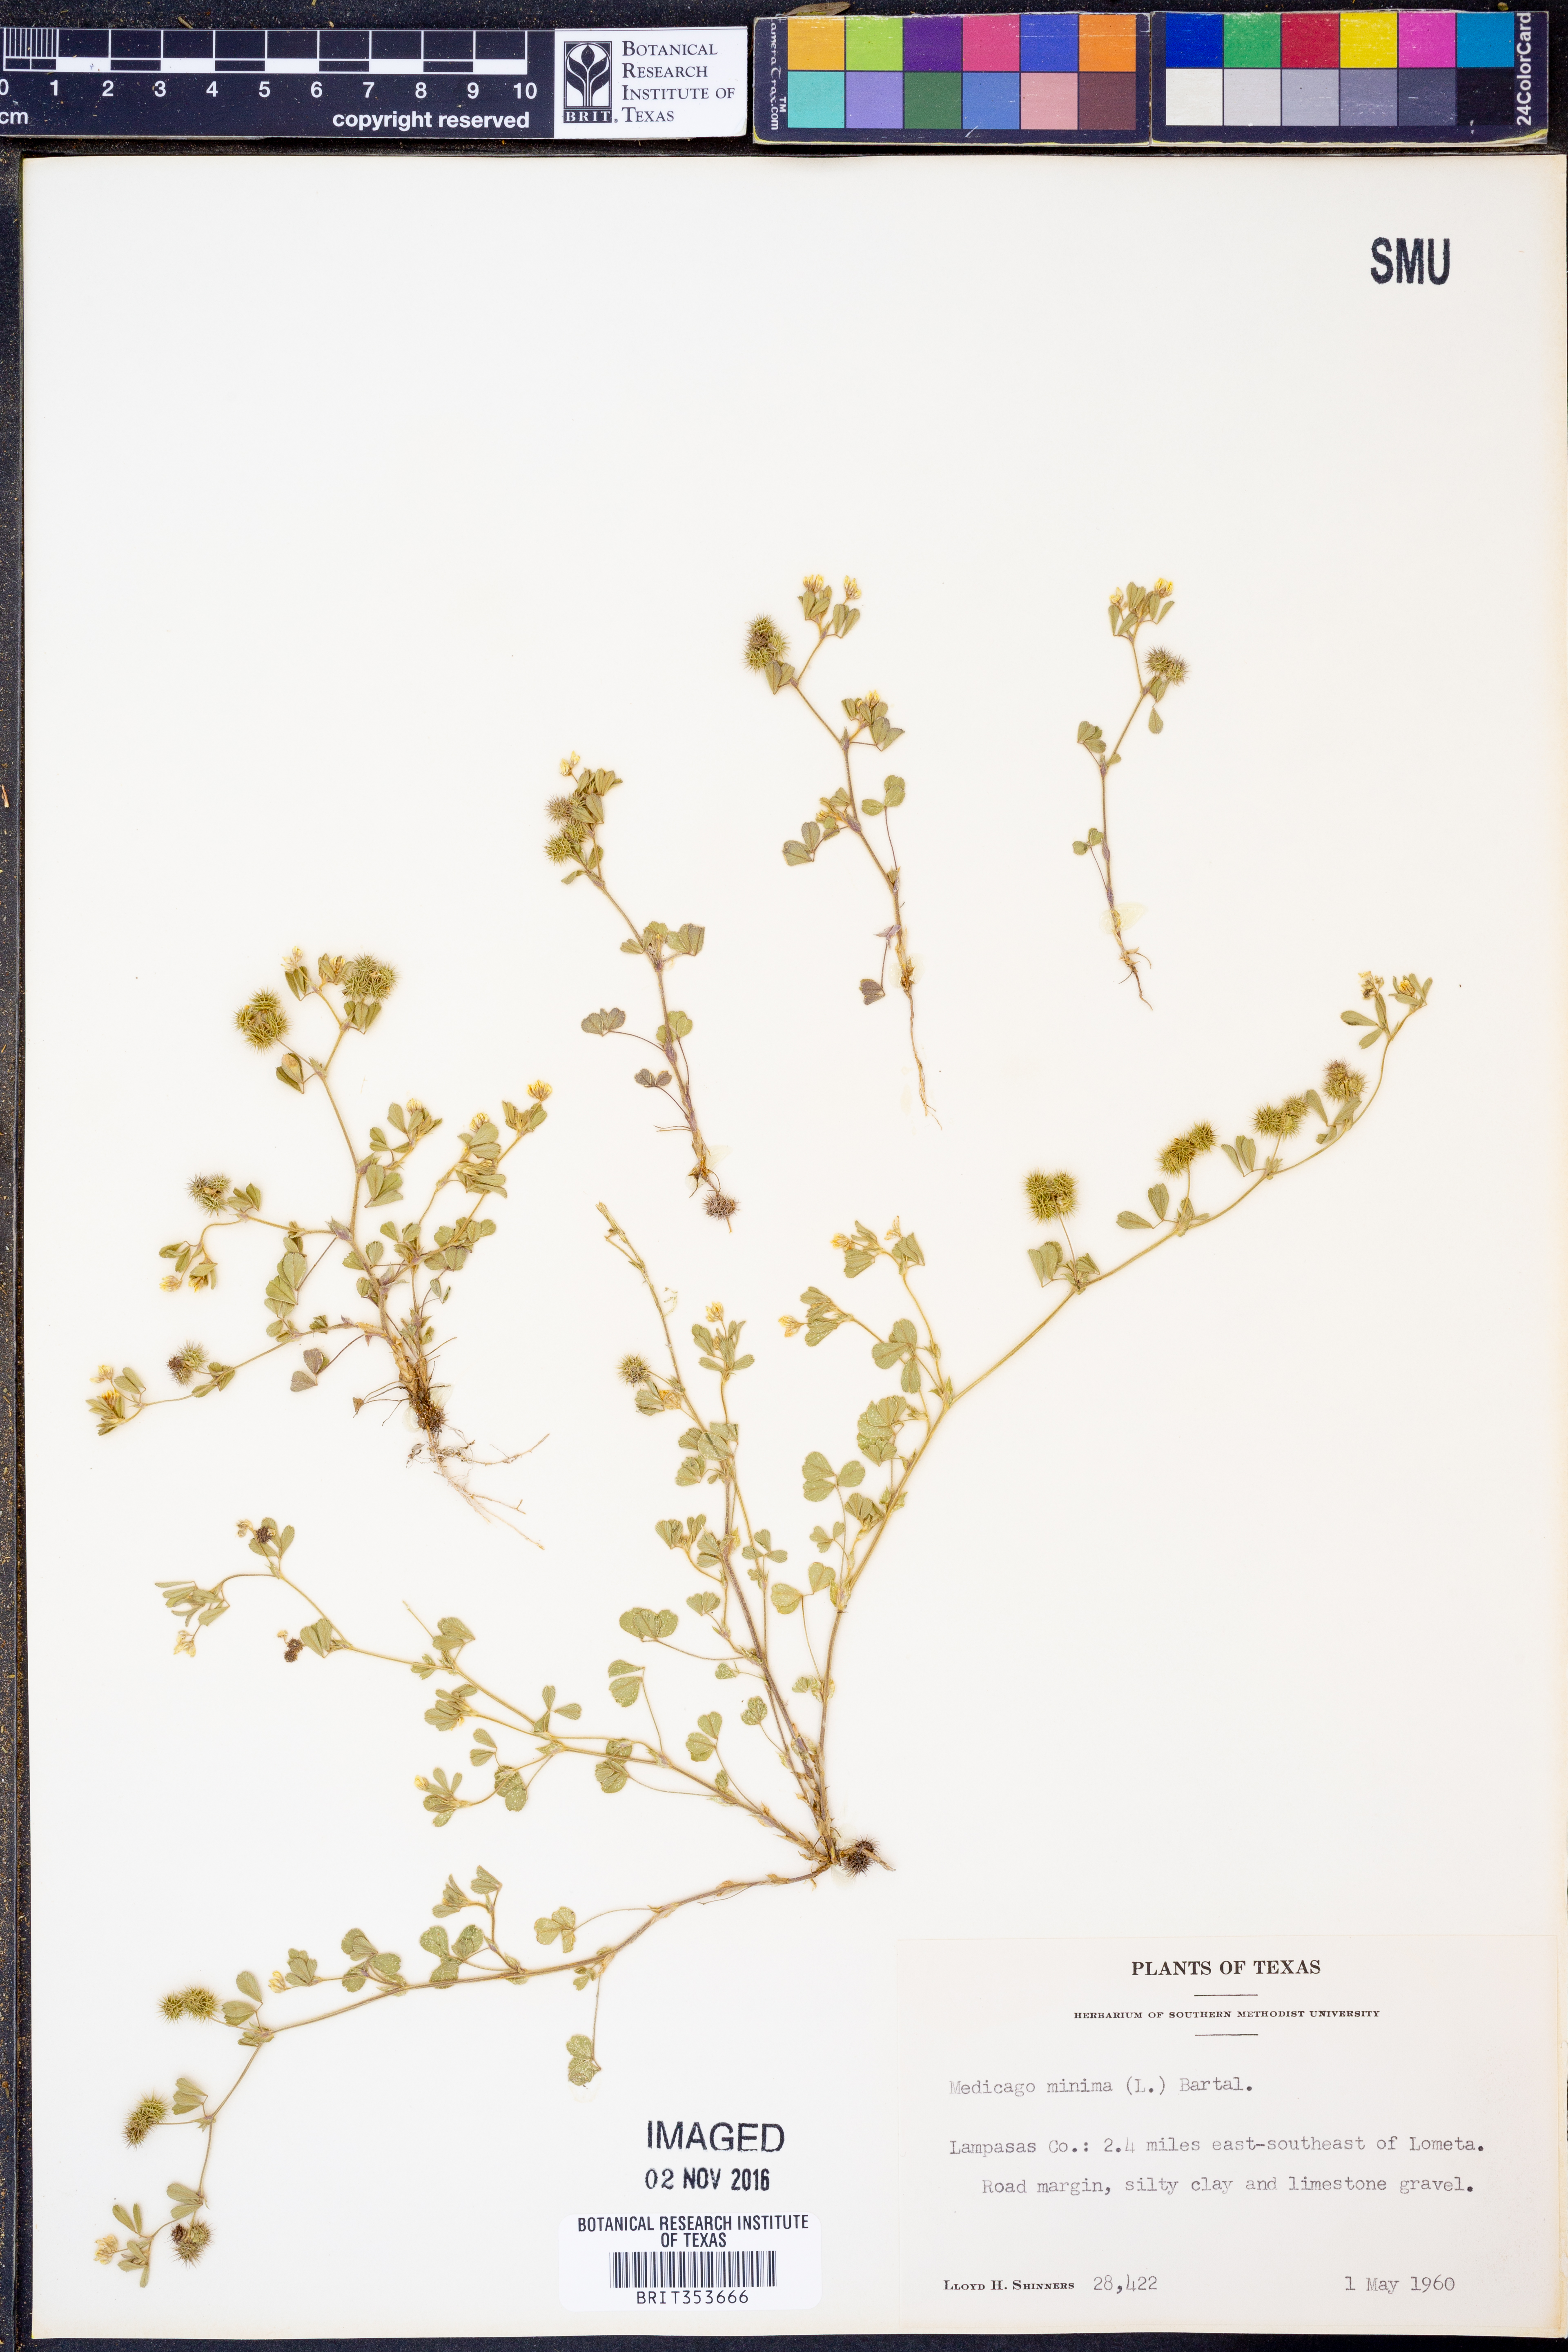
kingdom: Plantae
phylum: Tracheophyta
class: Magnoliopsida
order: Fabales
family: Fabaceae
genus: Medicago
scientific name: Medicago minima
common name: Little bur-clover
